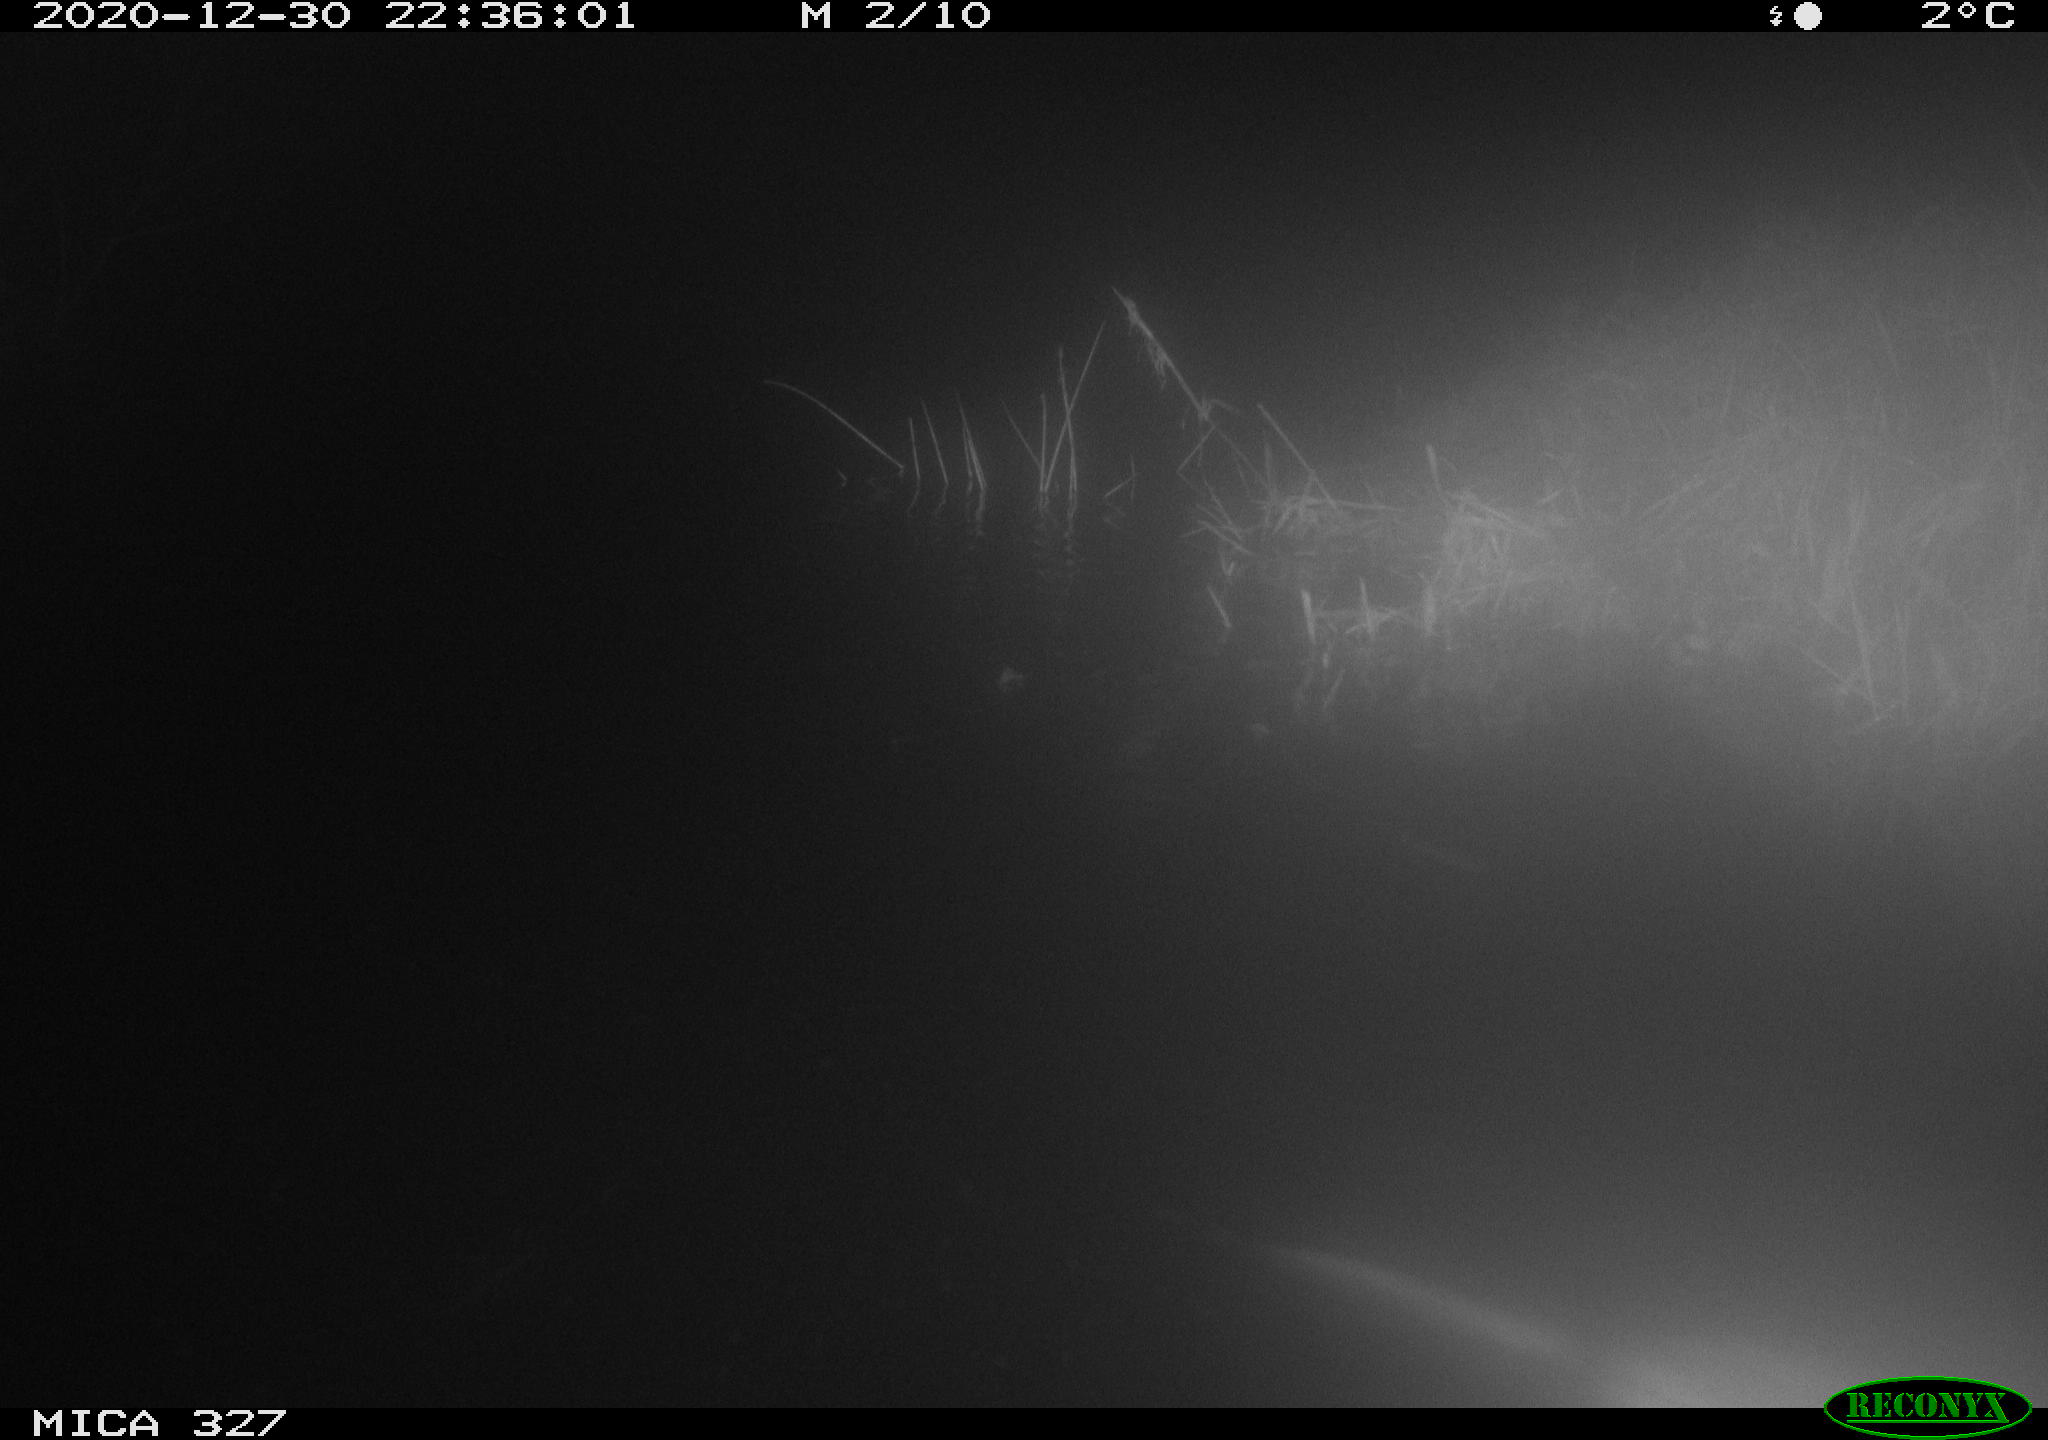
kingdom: Animalia
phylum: Chordata
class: Mammalia
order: Rodentia
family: Cricetidae
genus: Ondatra
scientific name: Ondatra zibethicus
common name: Muskrat
